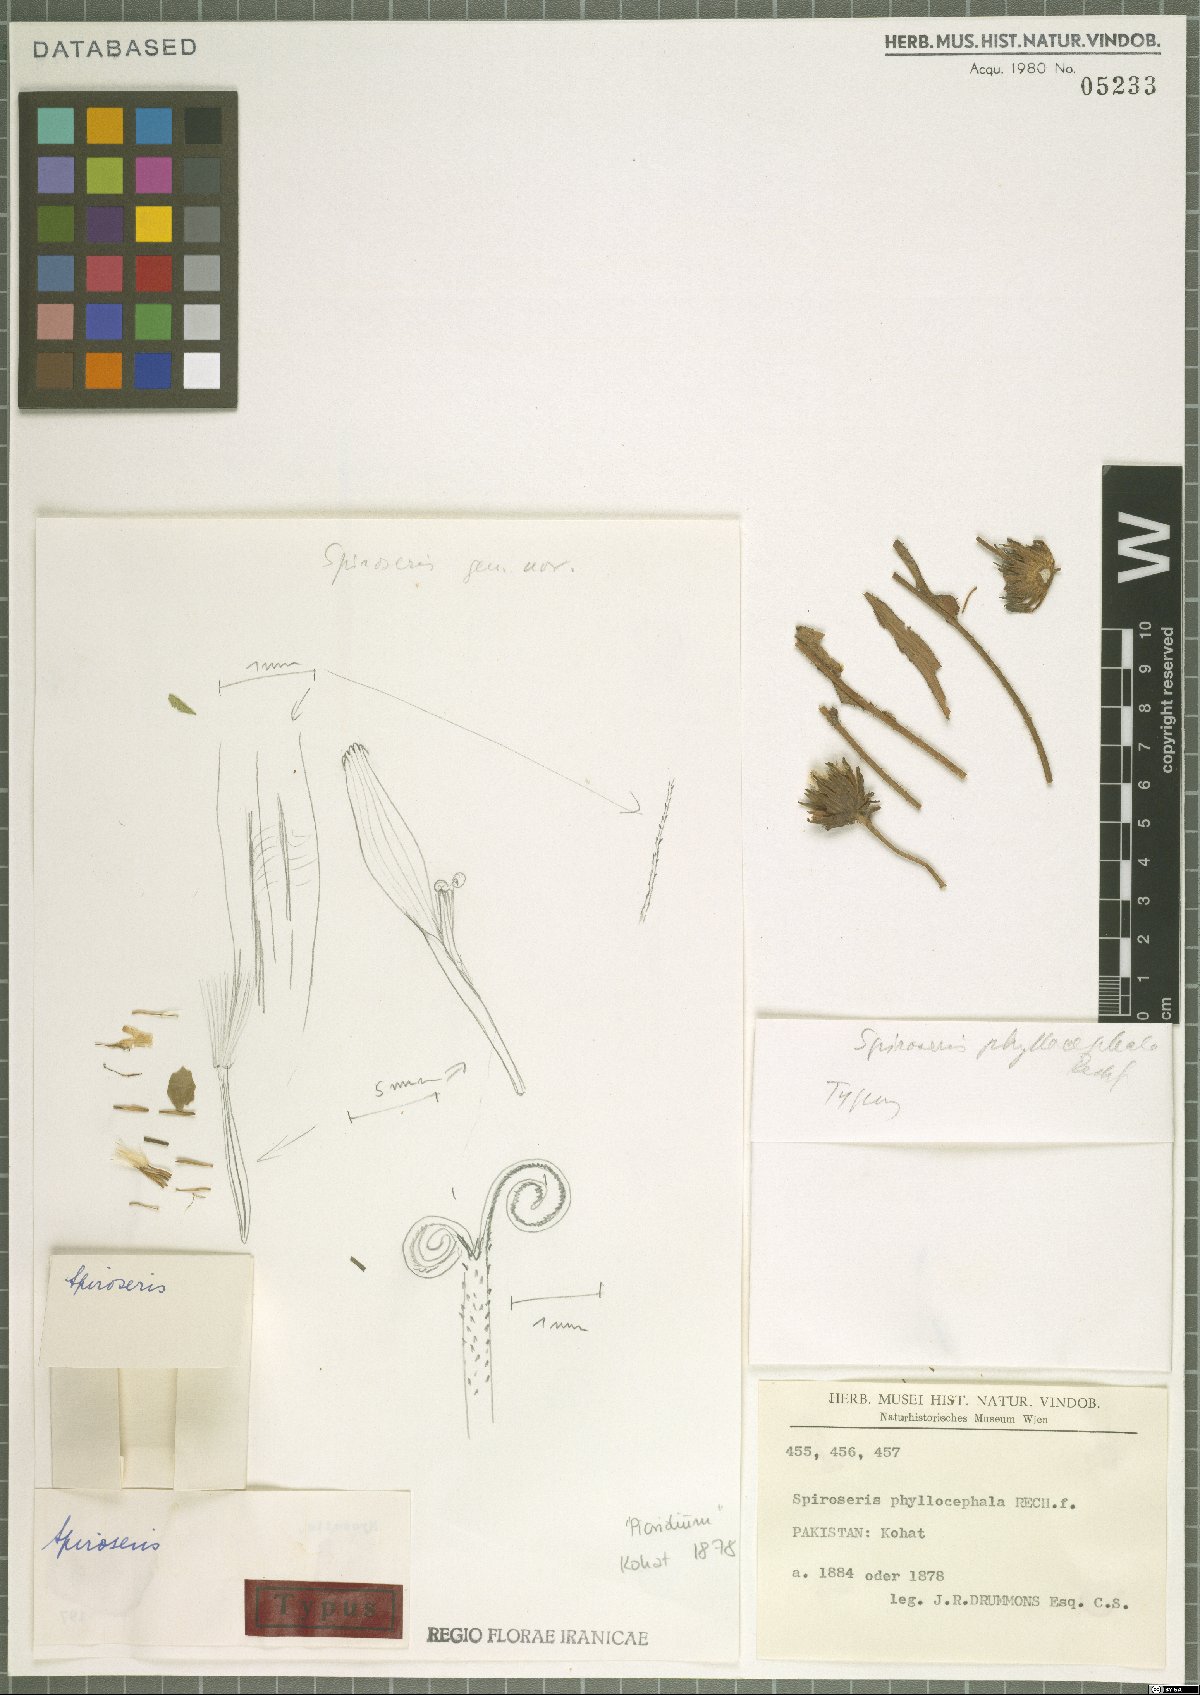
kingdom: Plantae
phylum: Tracheophyta
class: Magnoliopsida
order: Asterales
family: Asteraceae
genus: Spiroseris
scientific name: Spiroseris phyllocephala
